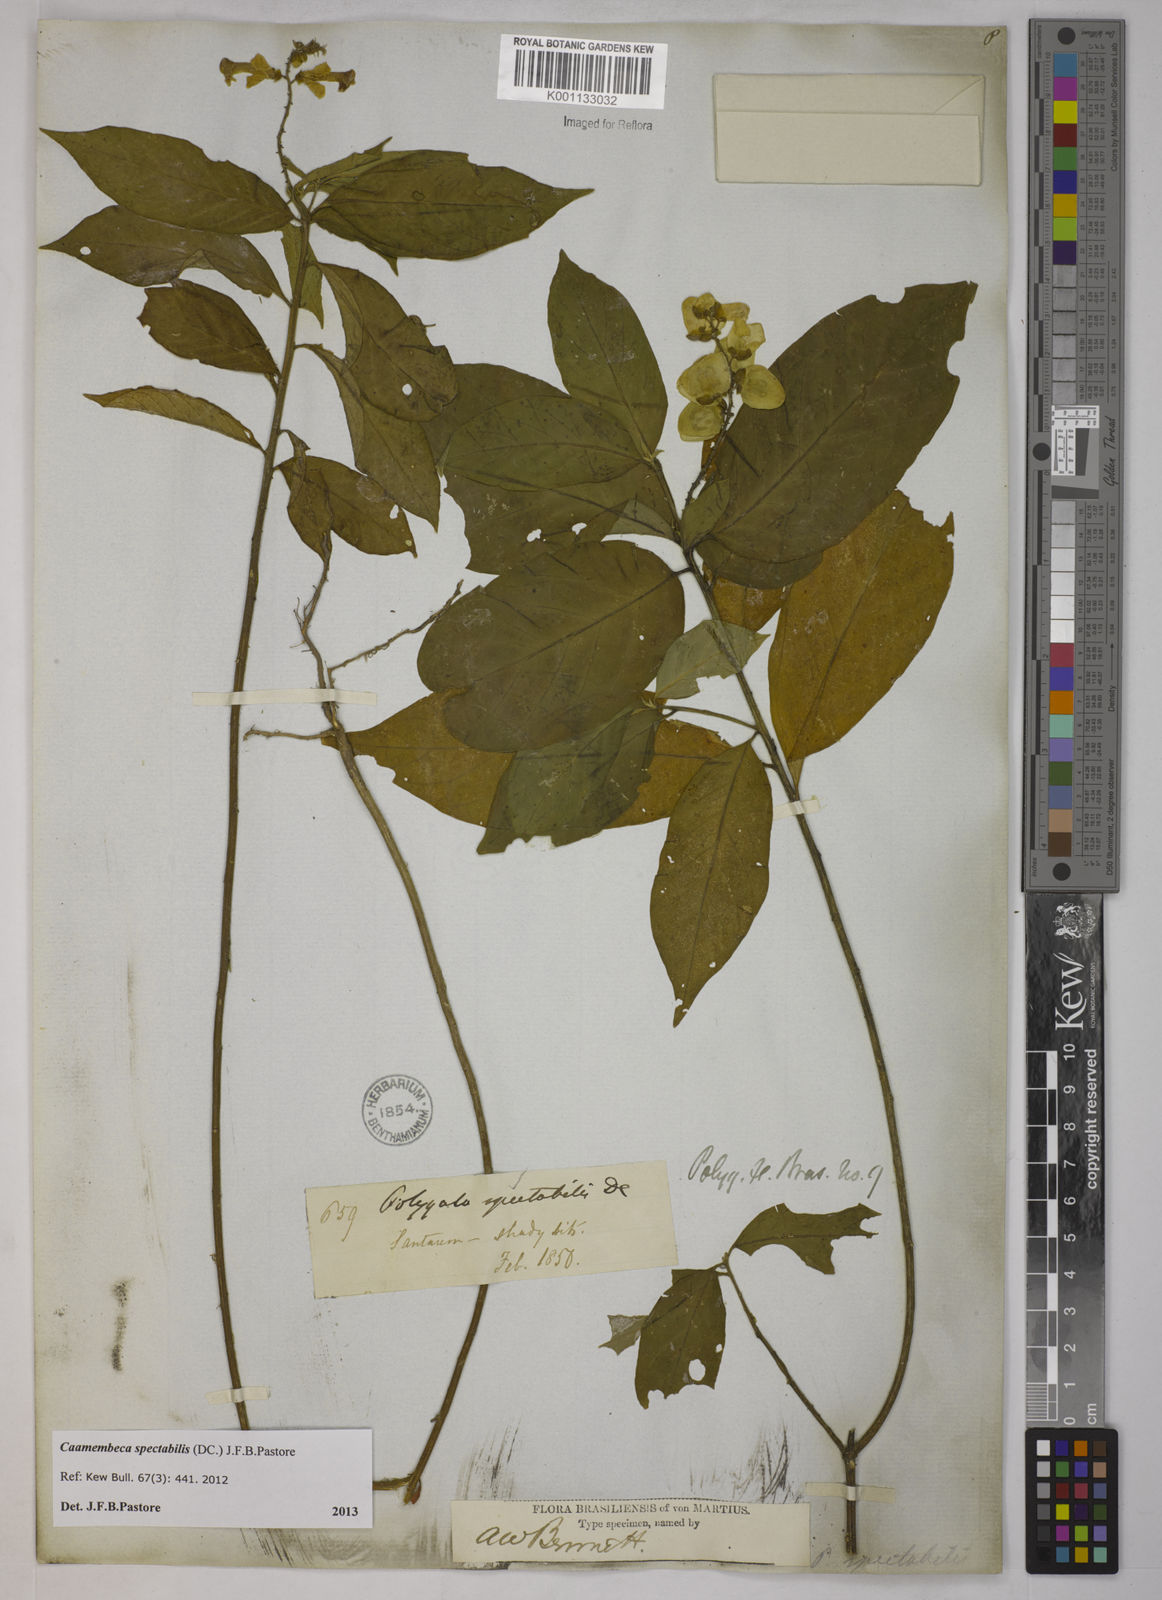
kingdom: Plantae
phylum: Tracheophyta
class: Magnoliopsida
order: Fabales
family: Polygalaceae
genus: Polygala
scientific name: Polygala
